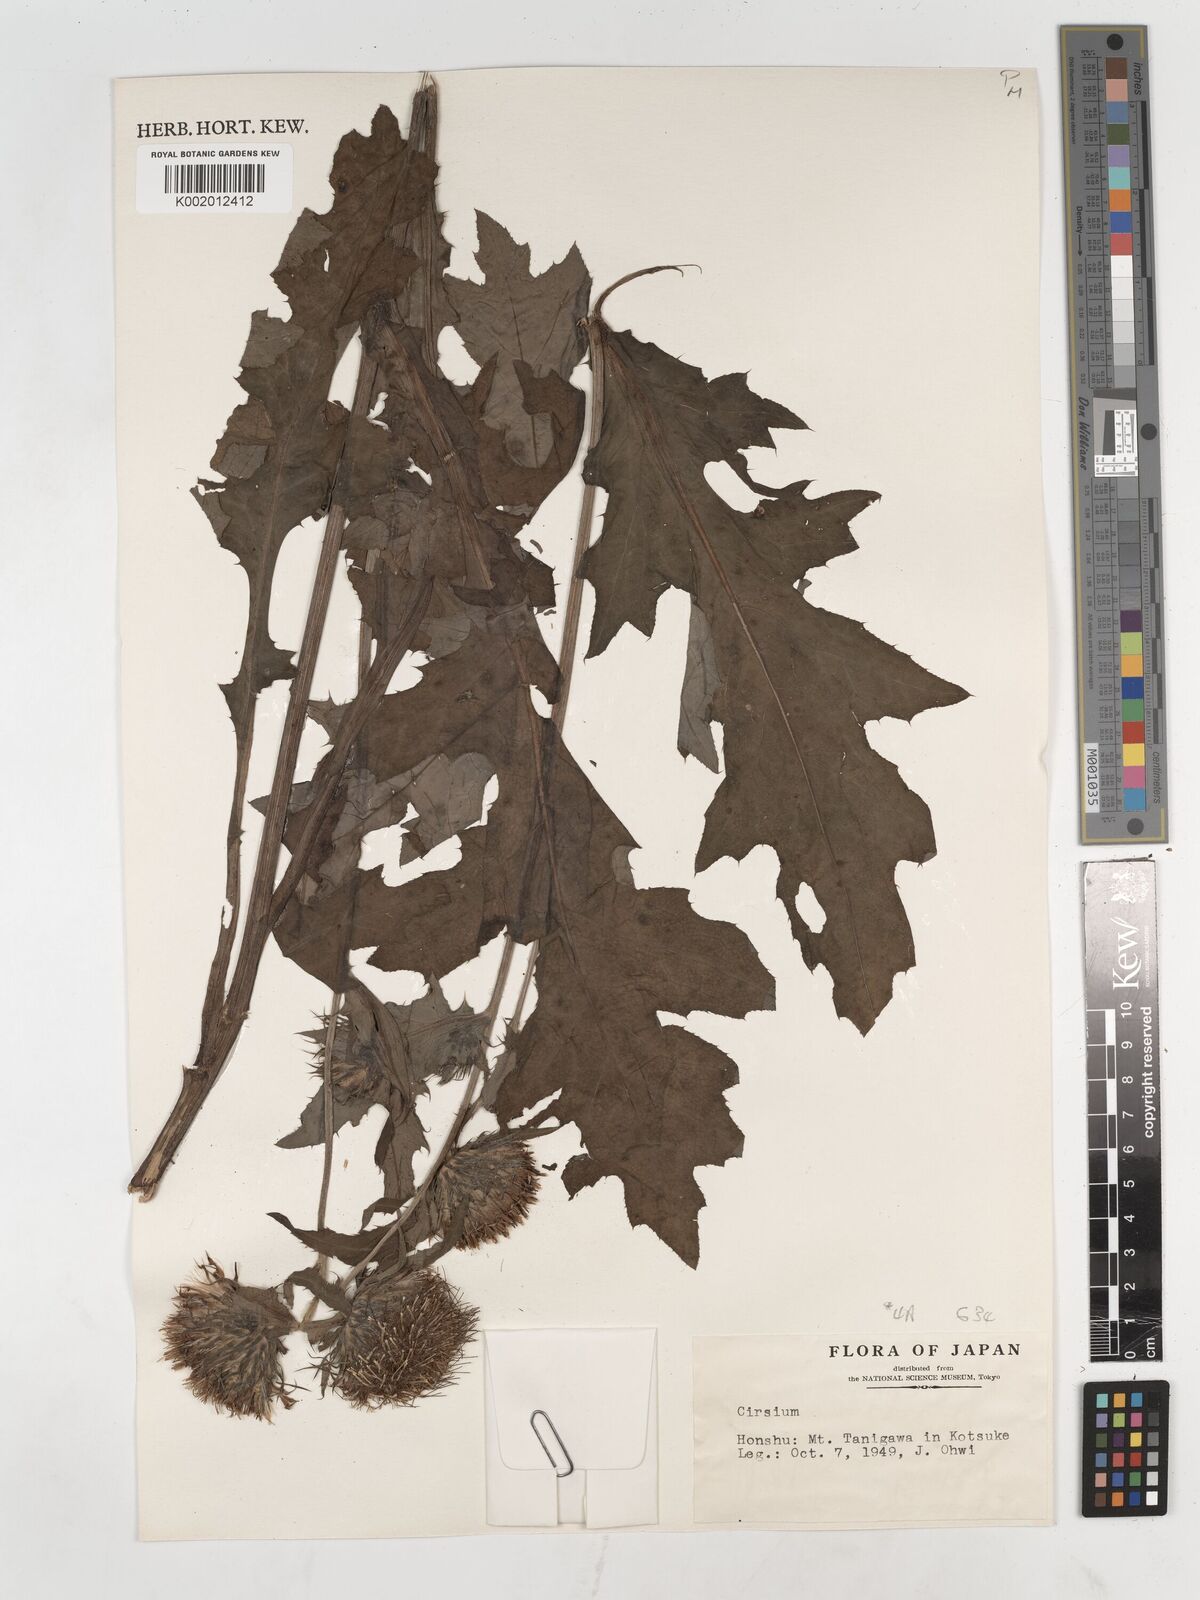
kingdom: Plantae
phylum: Tracheophyta
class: Magnoliopsida
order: Asterales
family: Asteraceae
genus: Cirsium
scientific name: Cirsium
